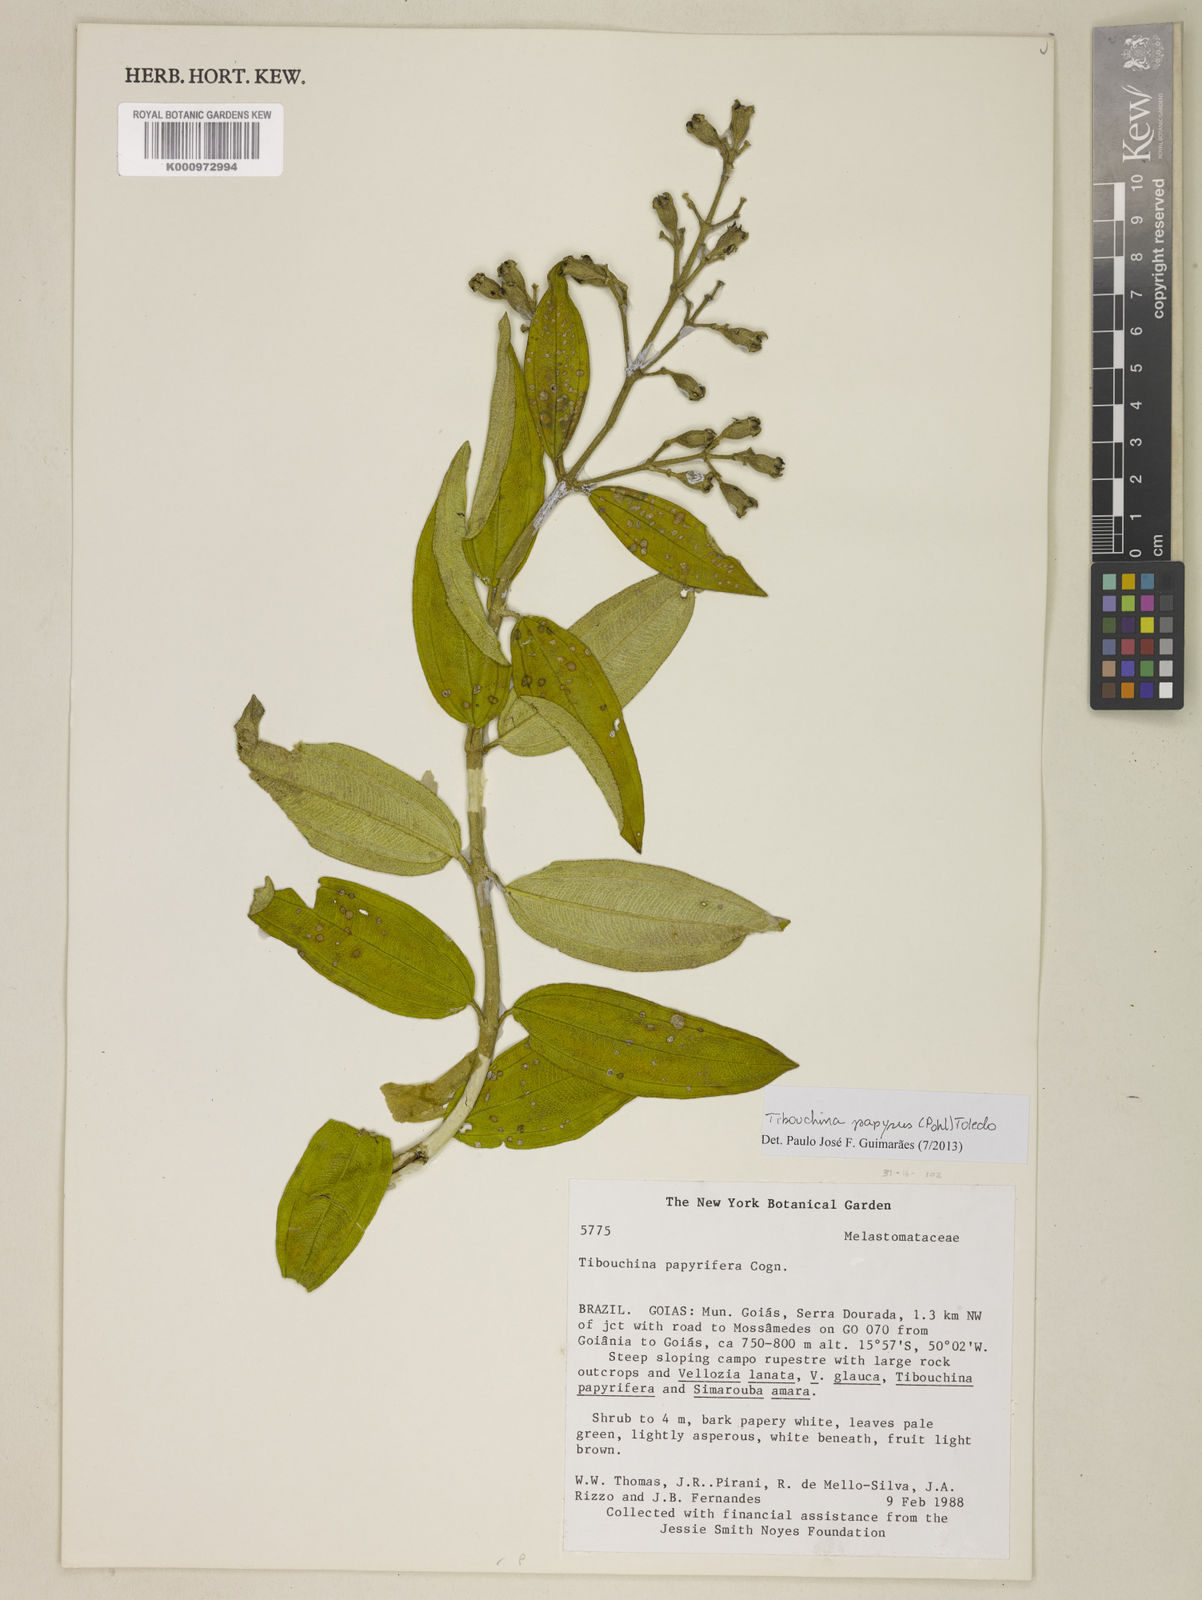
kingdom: Plantae
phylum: Tracheophyta
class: Magnoliopsida
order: Myrtales
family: Melastomataceae
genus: Pleroma
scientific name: Pleroma papyriferum
